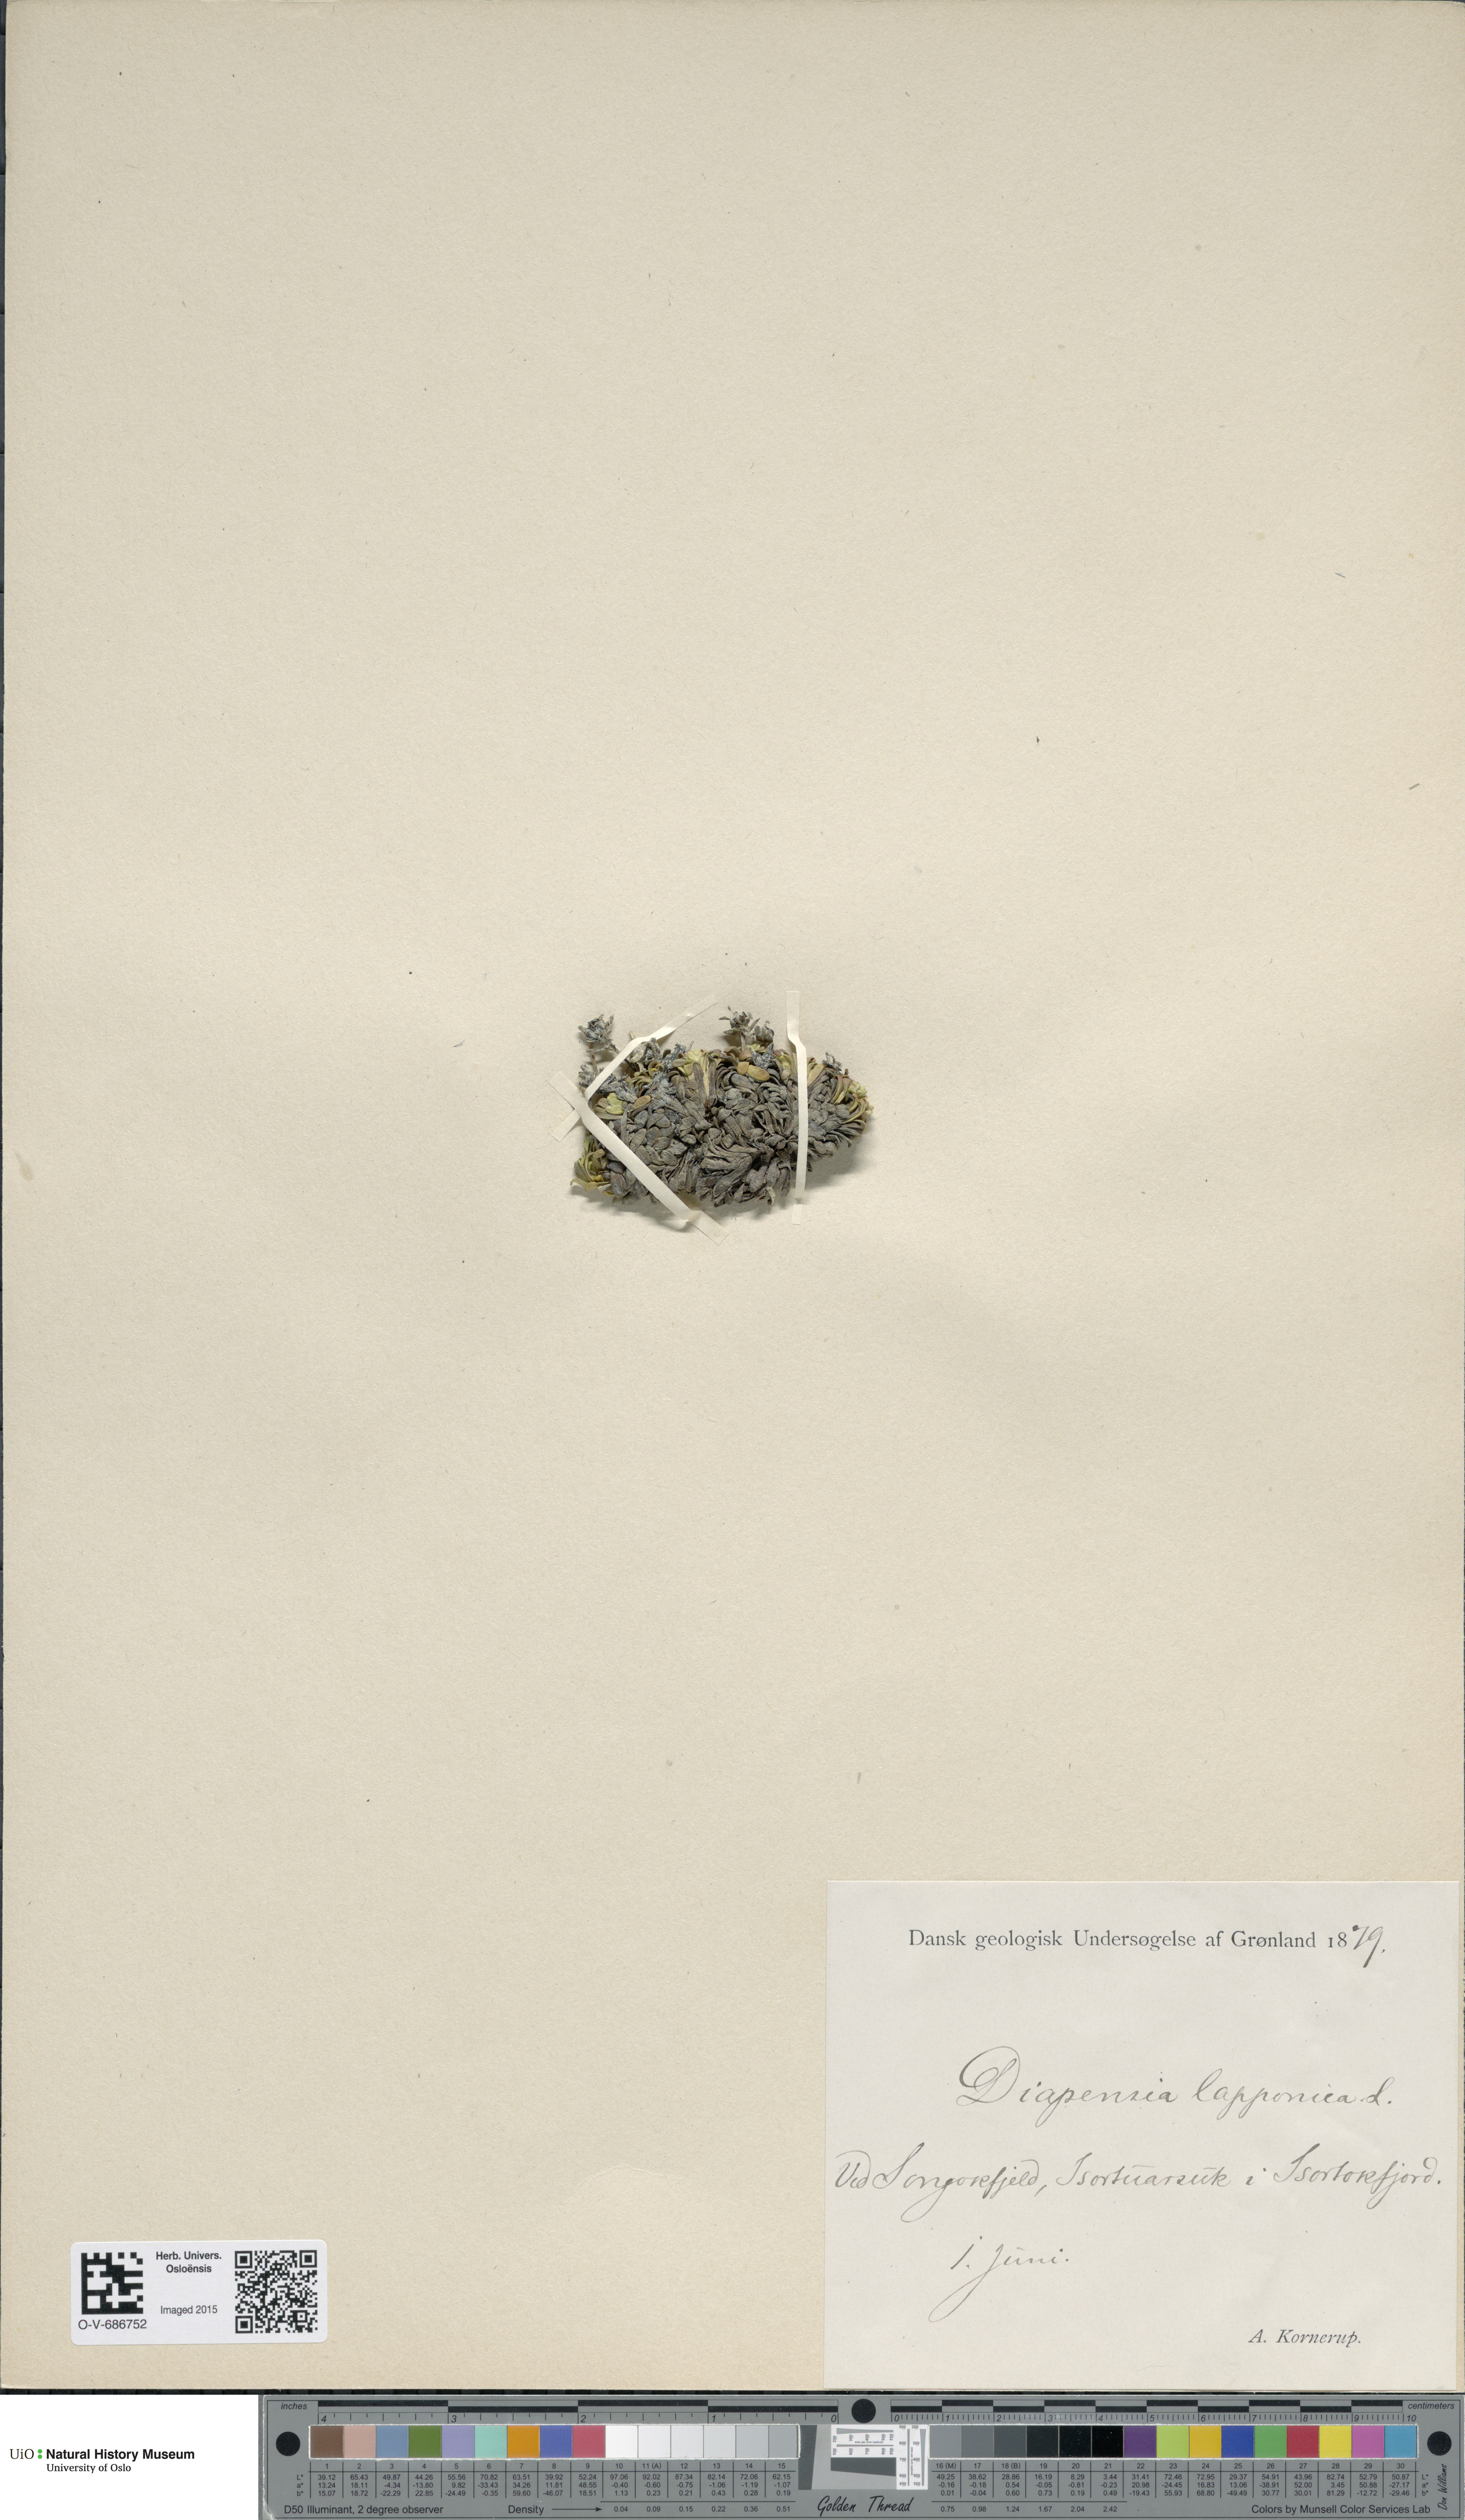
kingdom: Plantae
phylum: Tracheophyta
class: Magnoliopsida
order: Ericales
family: Diapensiaceae
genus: Diapensia
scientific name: Diapensia lapponica
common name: Diapensia
